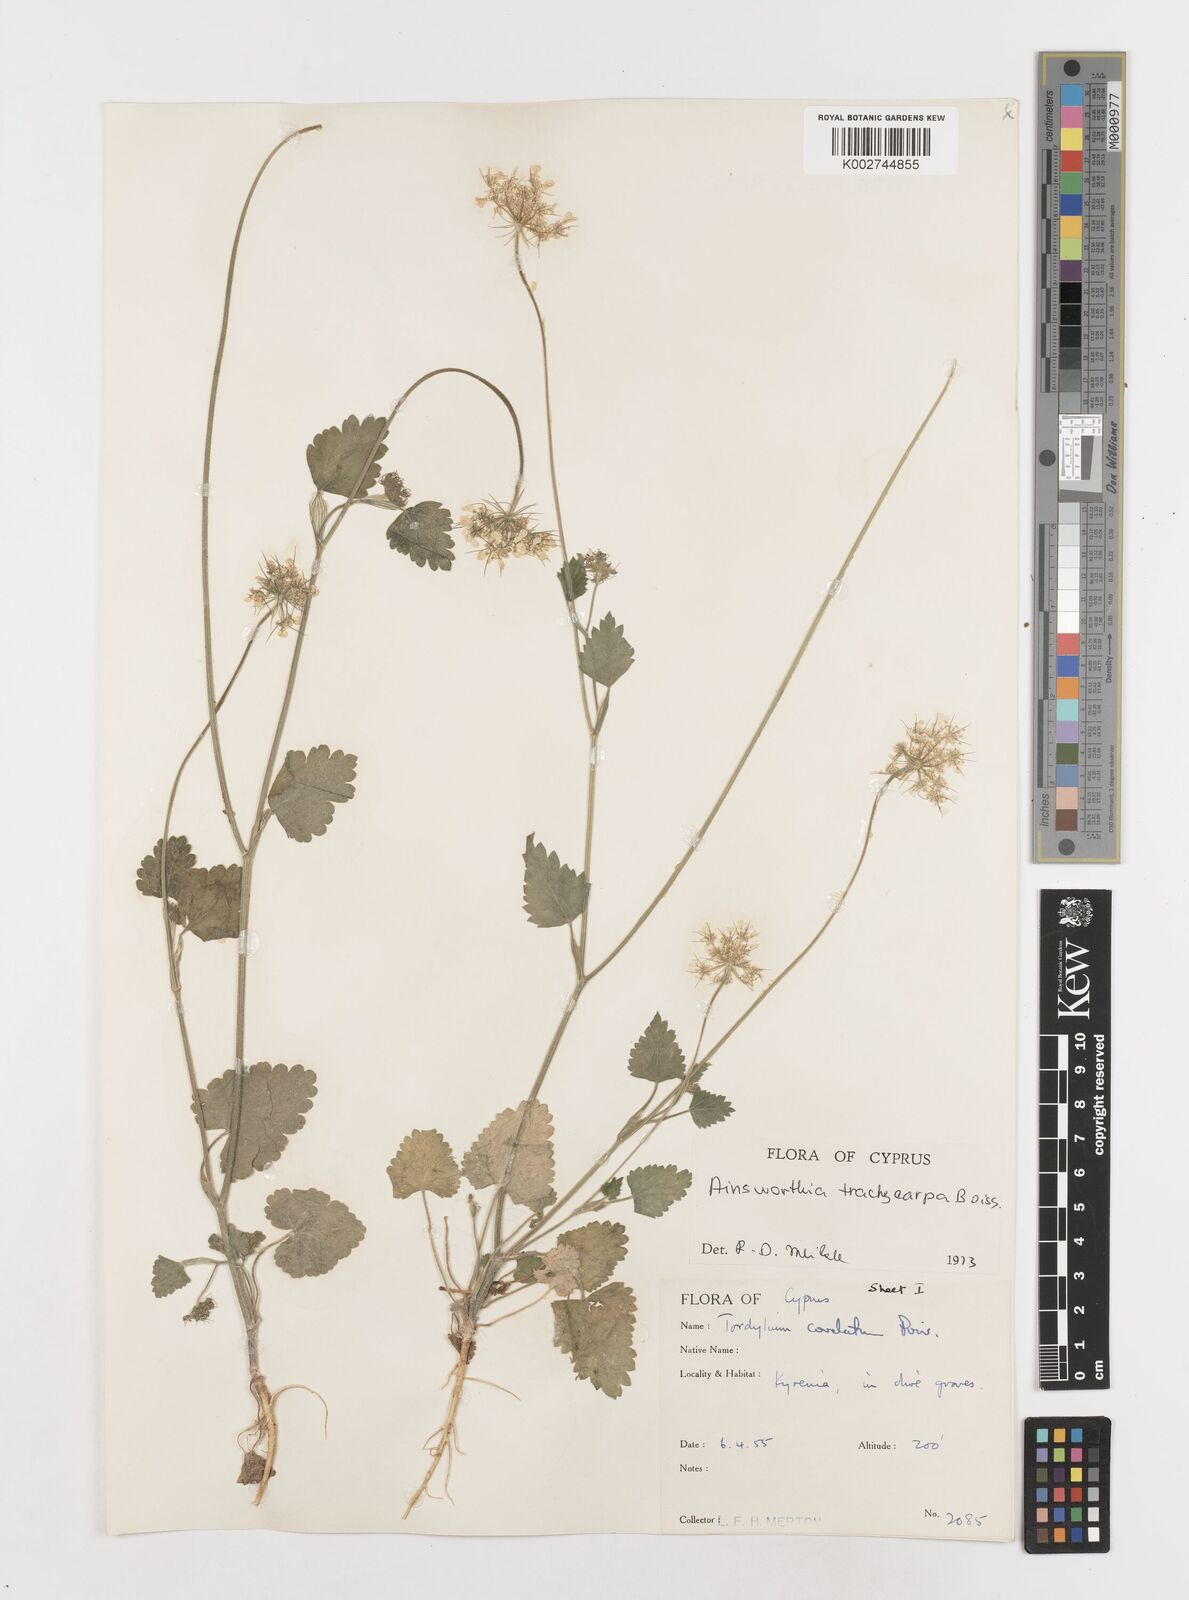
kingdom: Plantae
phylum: Tracheophyta
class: Magnoliopsida
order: Apiales
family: Apiaceae
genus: Ainsworthia
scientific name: Ainsworthia cordata
